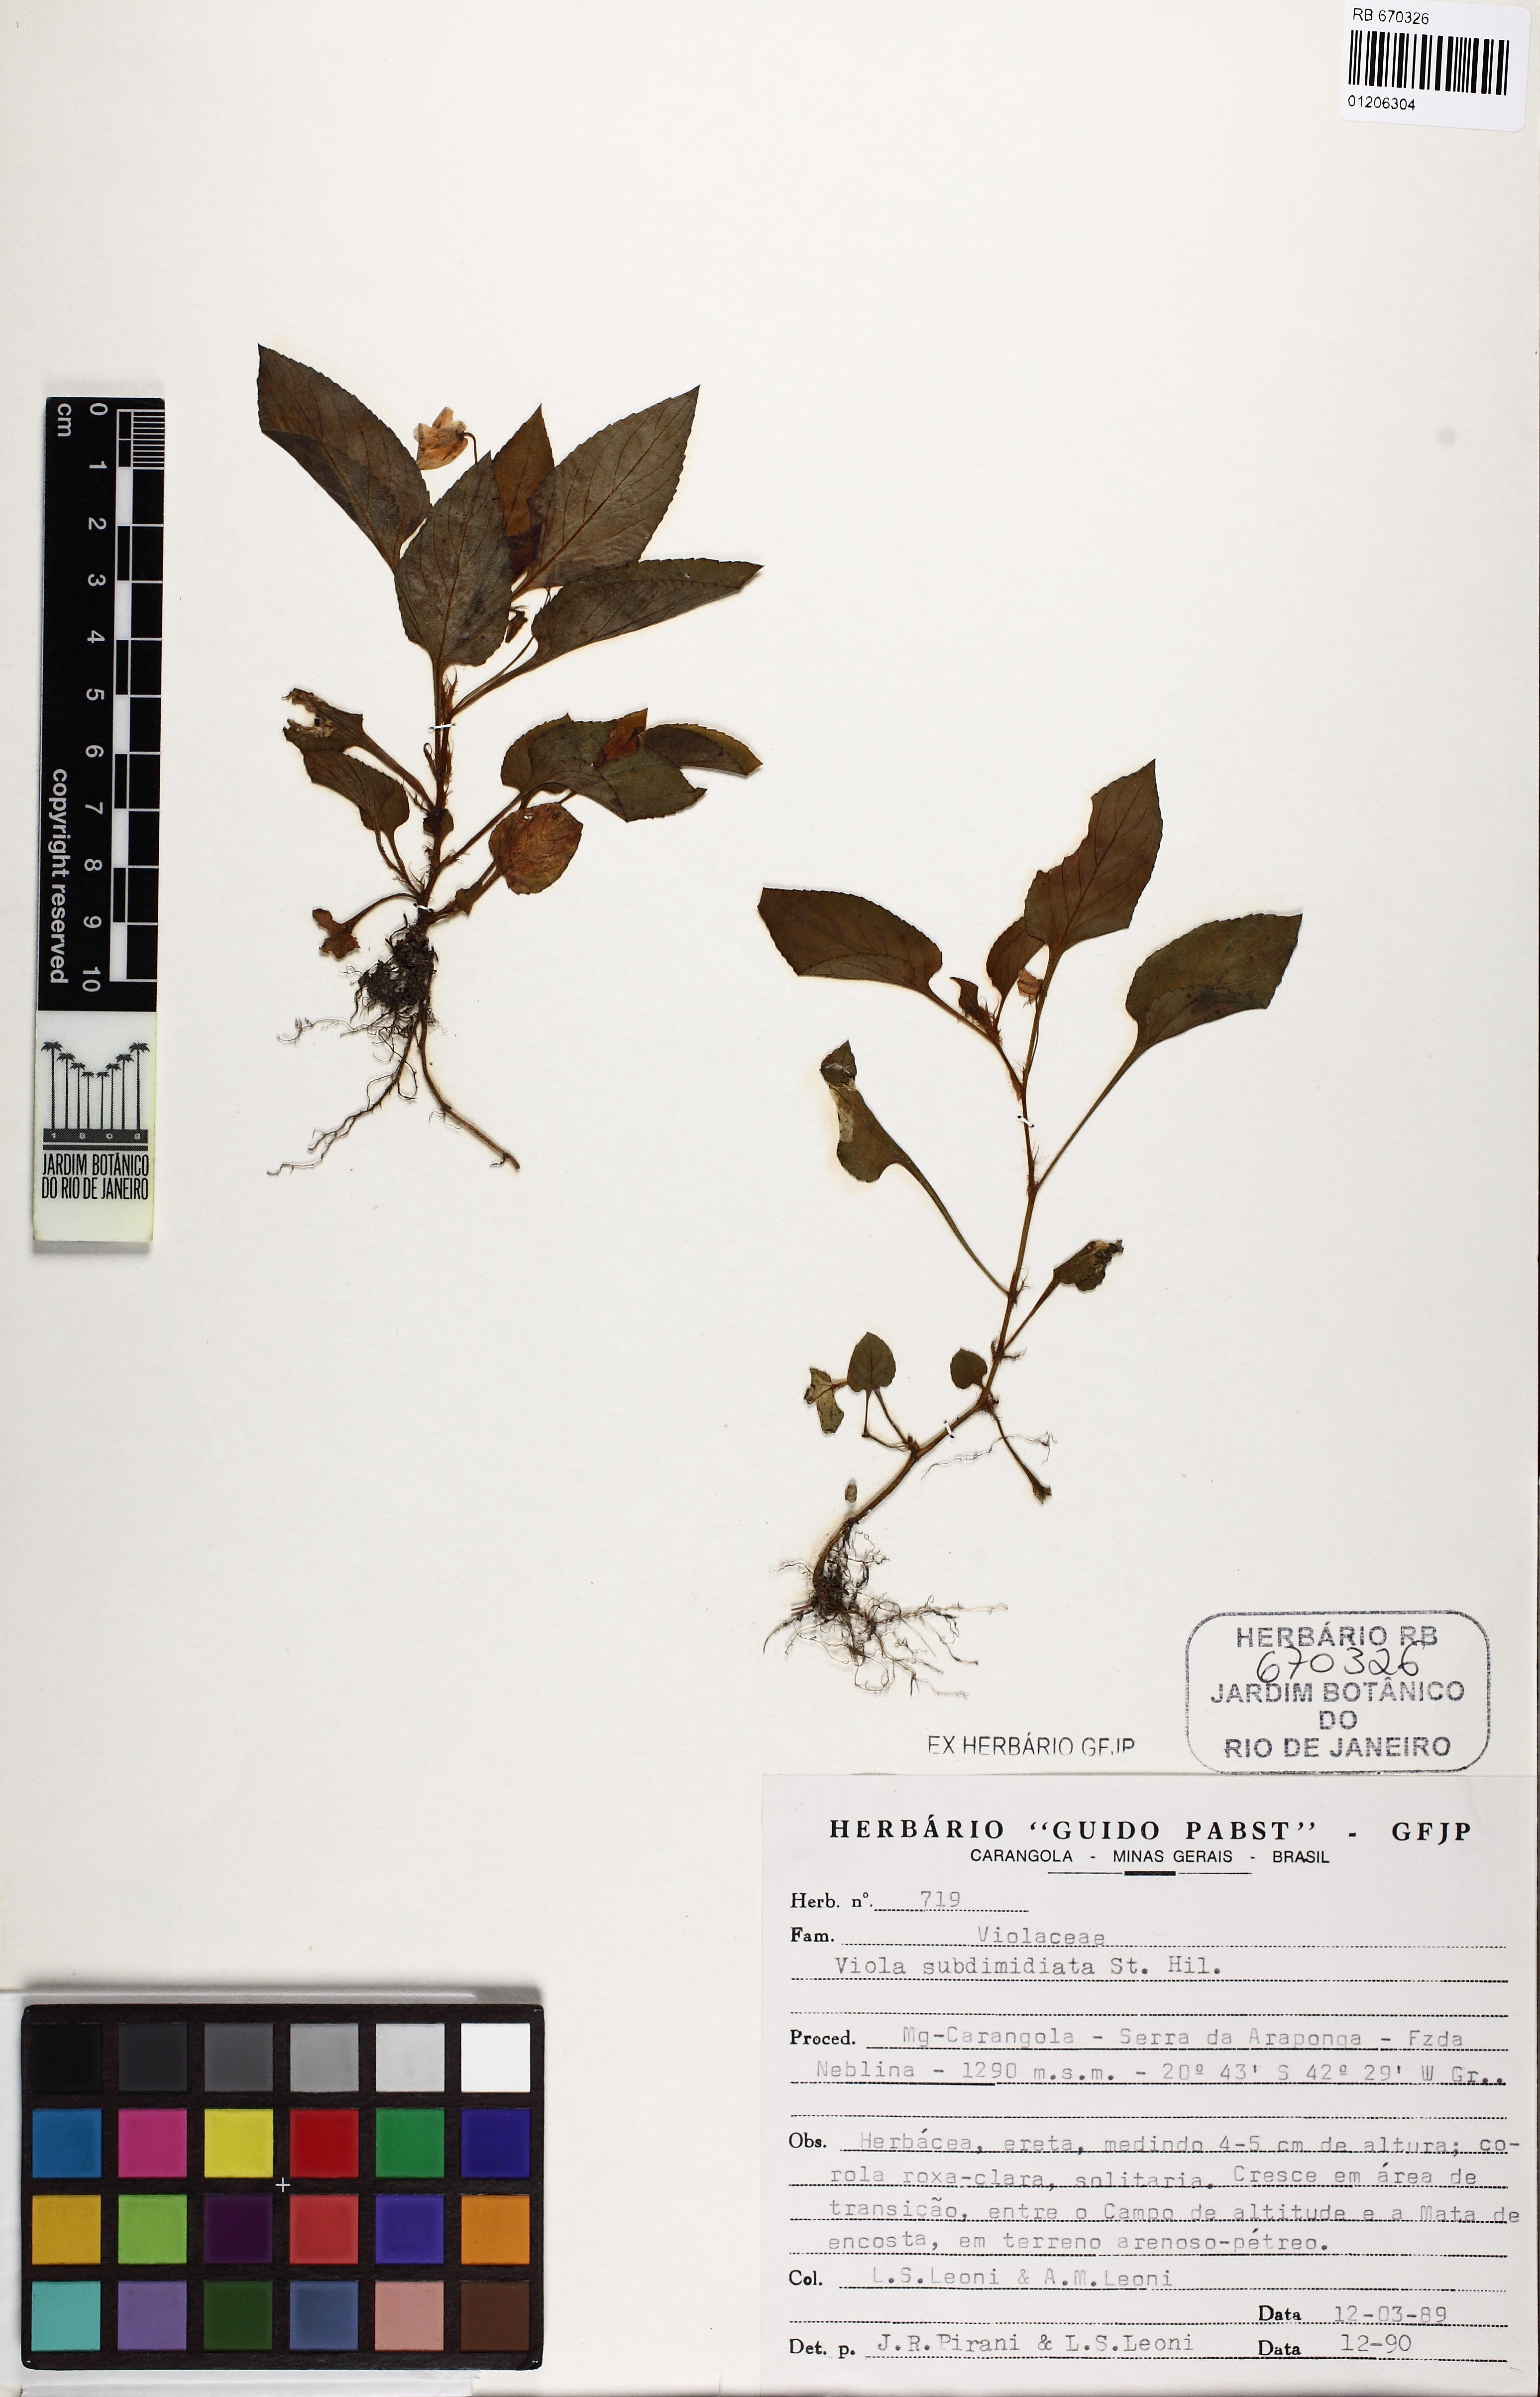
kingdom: Plantae
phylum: Tracheophyta
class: Magnoliopsida
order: Malpighiales
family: Violaceae
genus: Viola
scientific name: Viola subdimidiata
